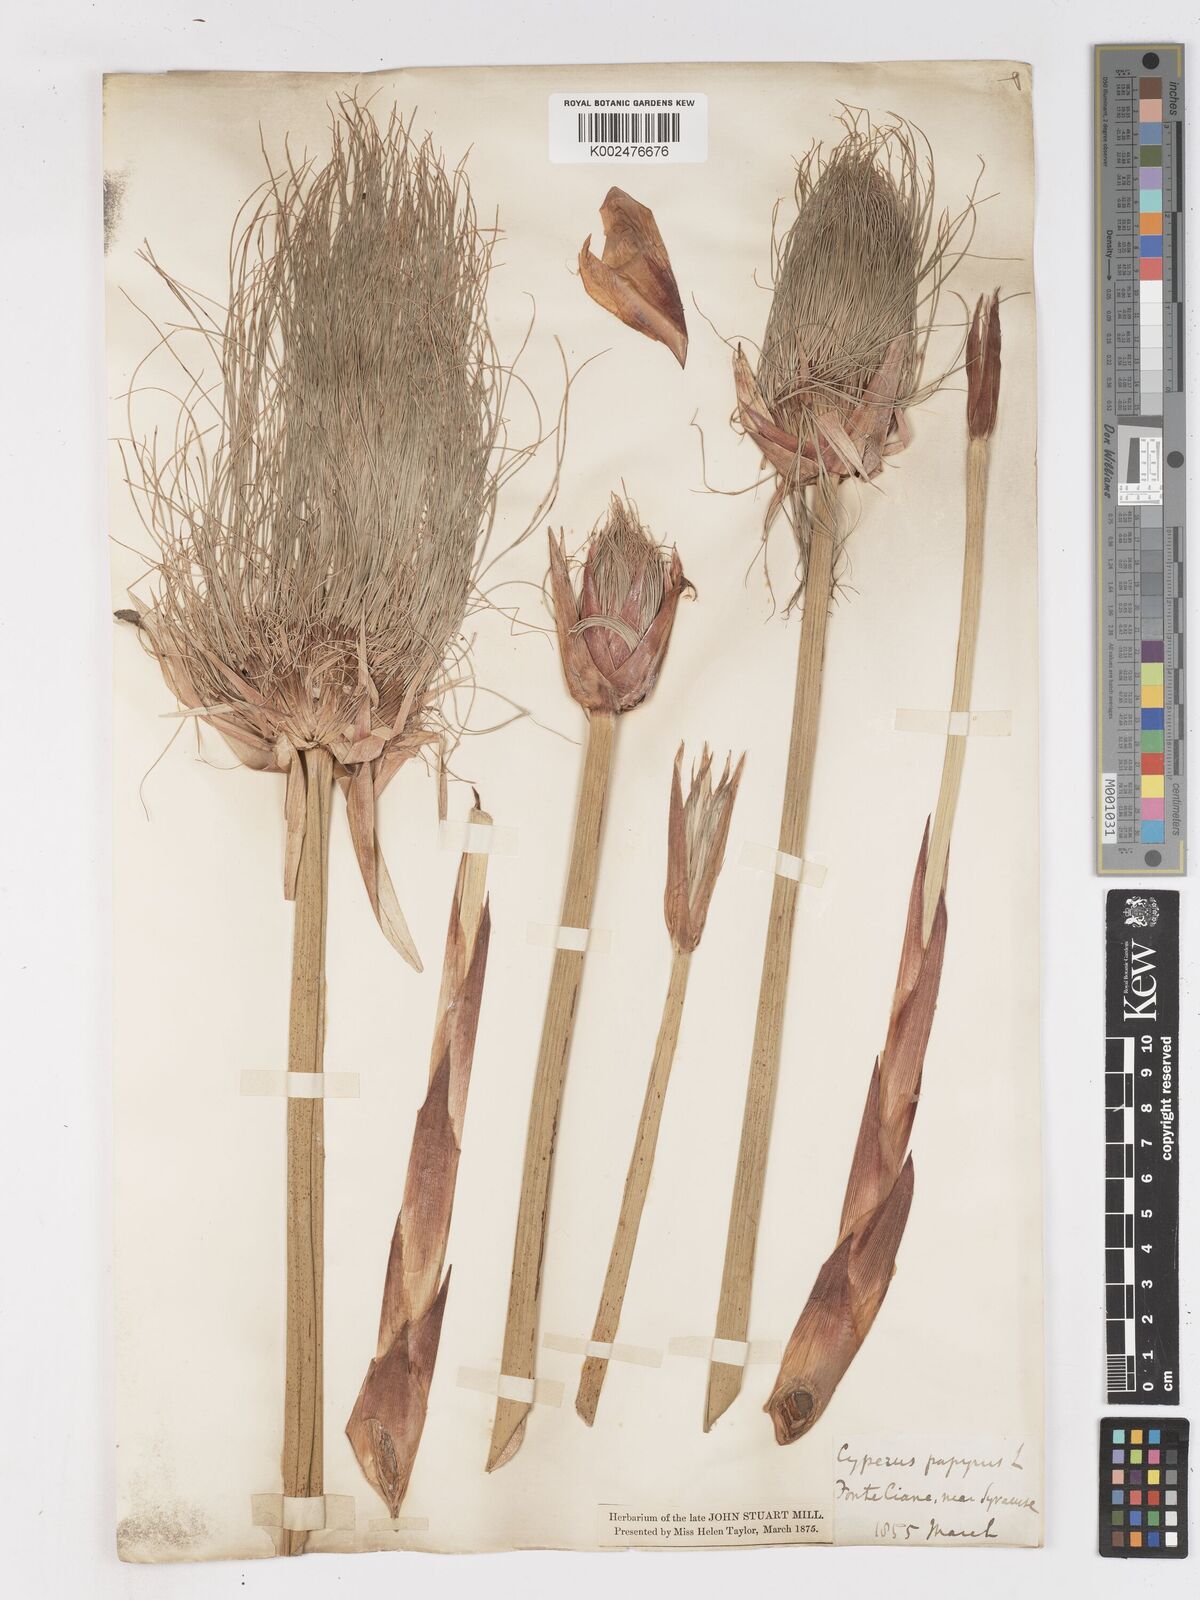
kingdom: Plantae
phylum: Tracheophyta
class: Liliopsida
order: Poales
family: Cyperaceae
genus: Cyperus
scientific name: Cyperus papyrus
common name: Papyrus
